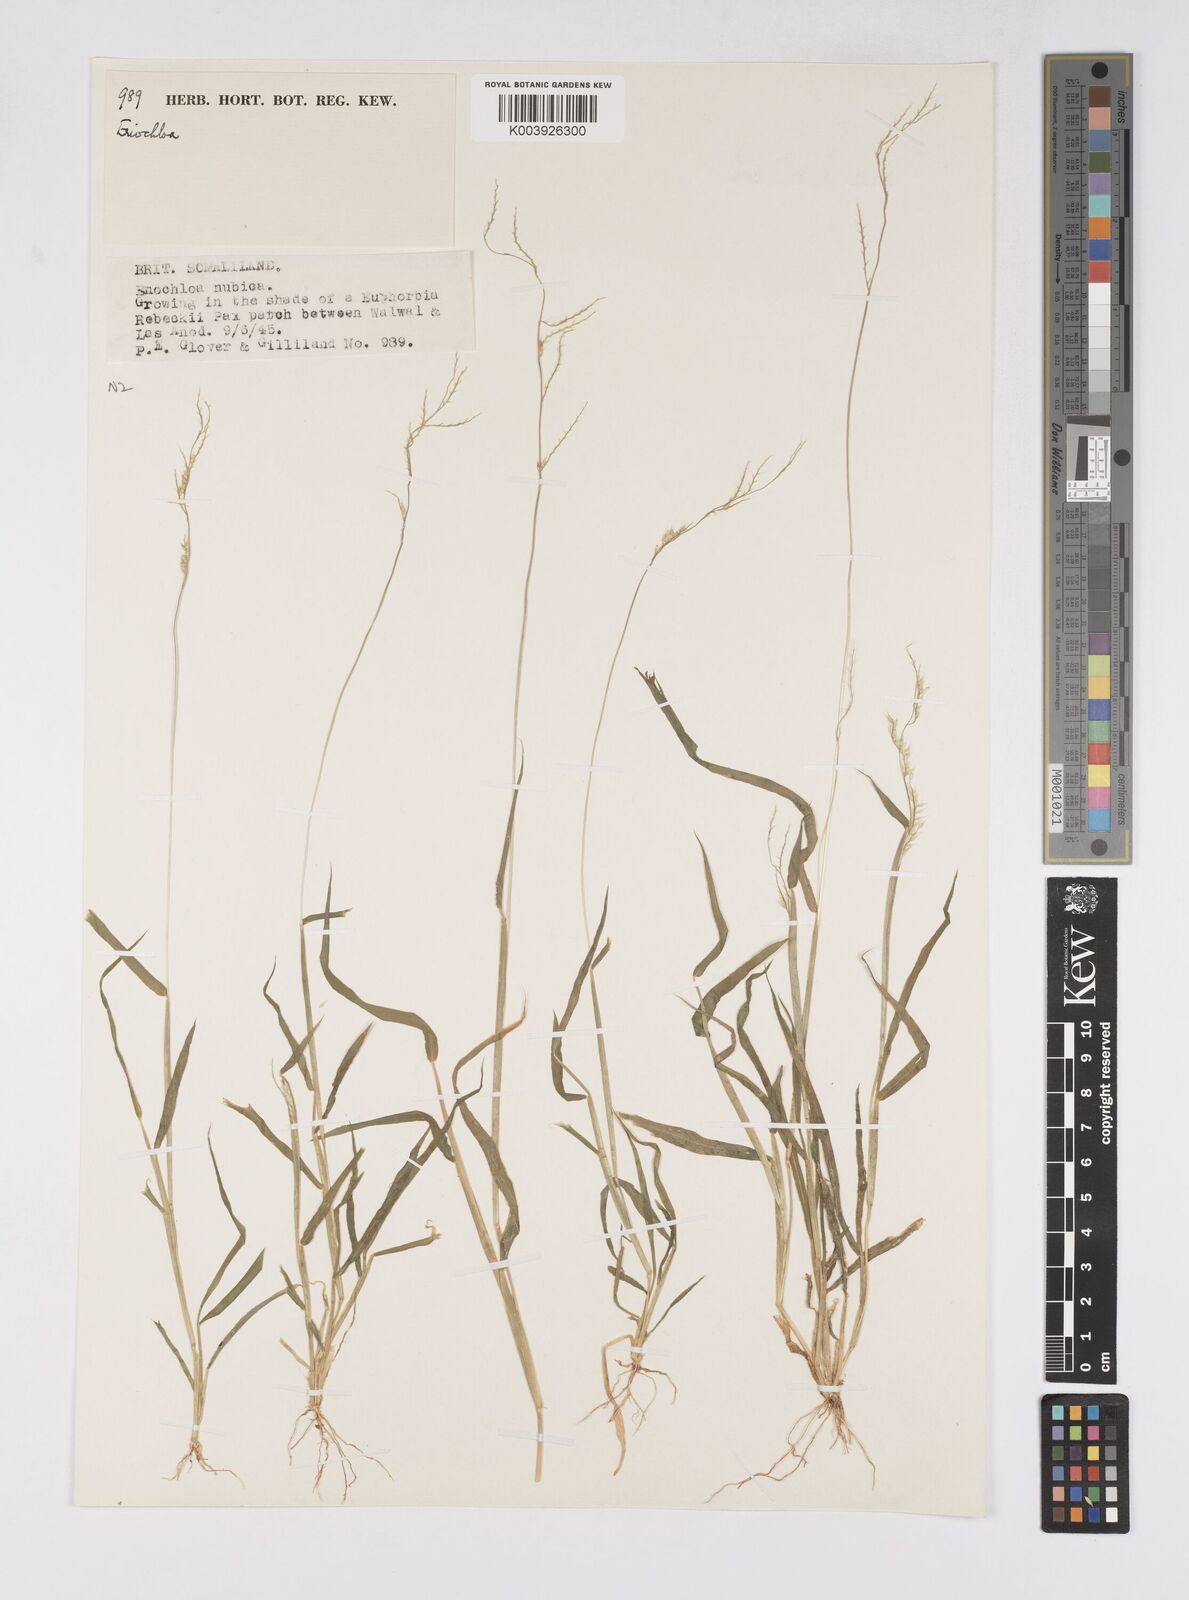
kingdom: Plantae
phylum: Tracheophyta
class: Liliopsida
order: Poales
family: Poaceae
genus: Eriochloa
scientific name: Eriochloa barbatus
